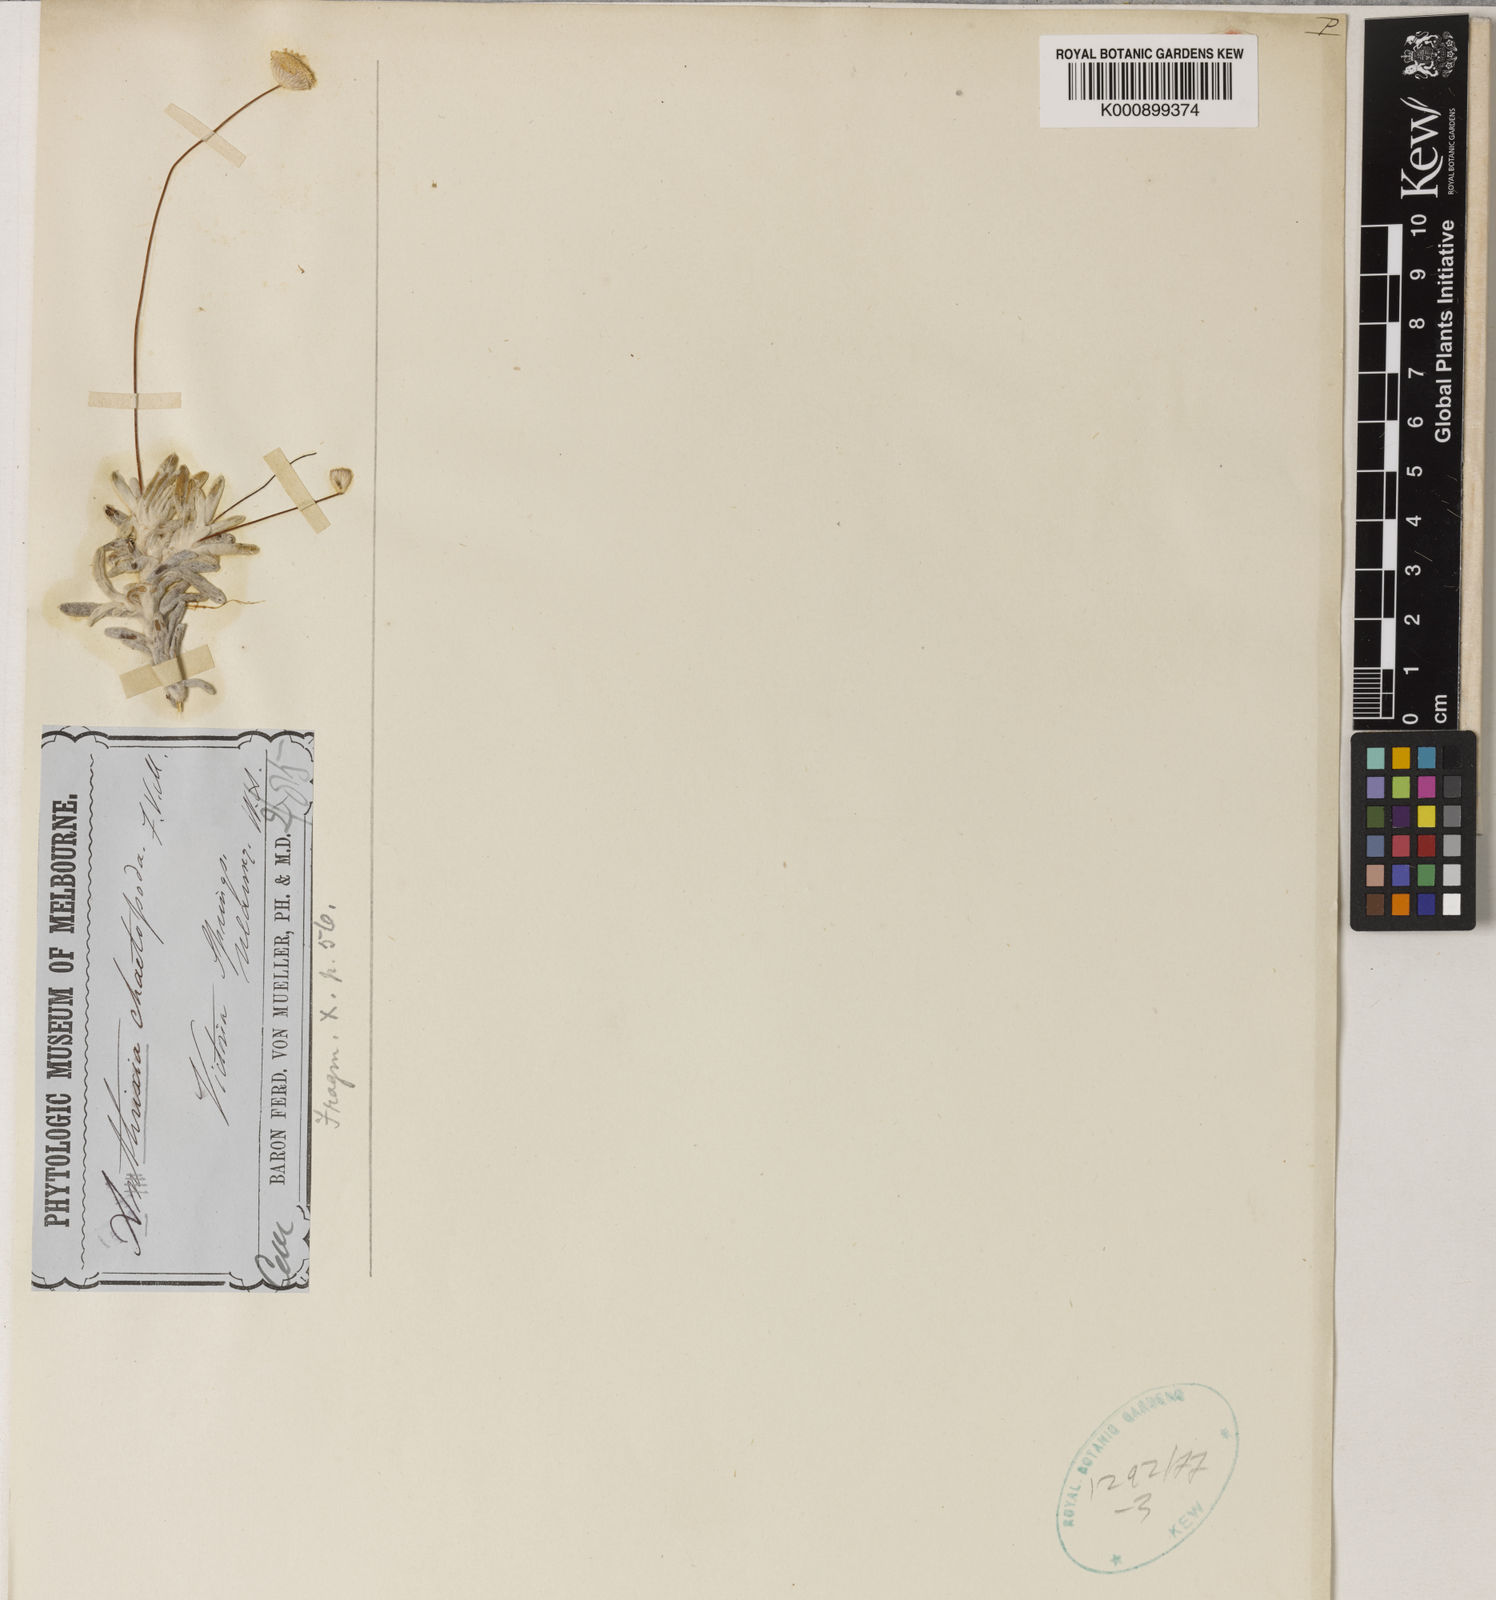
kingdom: Plantae
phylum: Tracheophyta
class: Magnoliopsida
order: Asterales
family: Asteraceae
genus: Asteridea
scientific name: Asteridea chaetopoda
